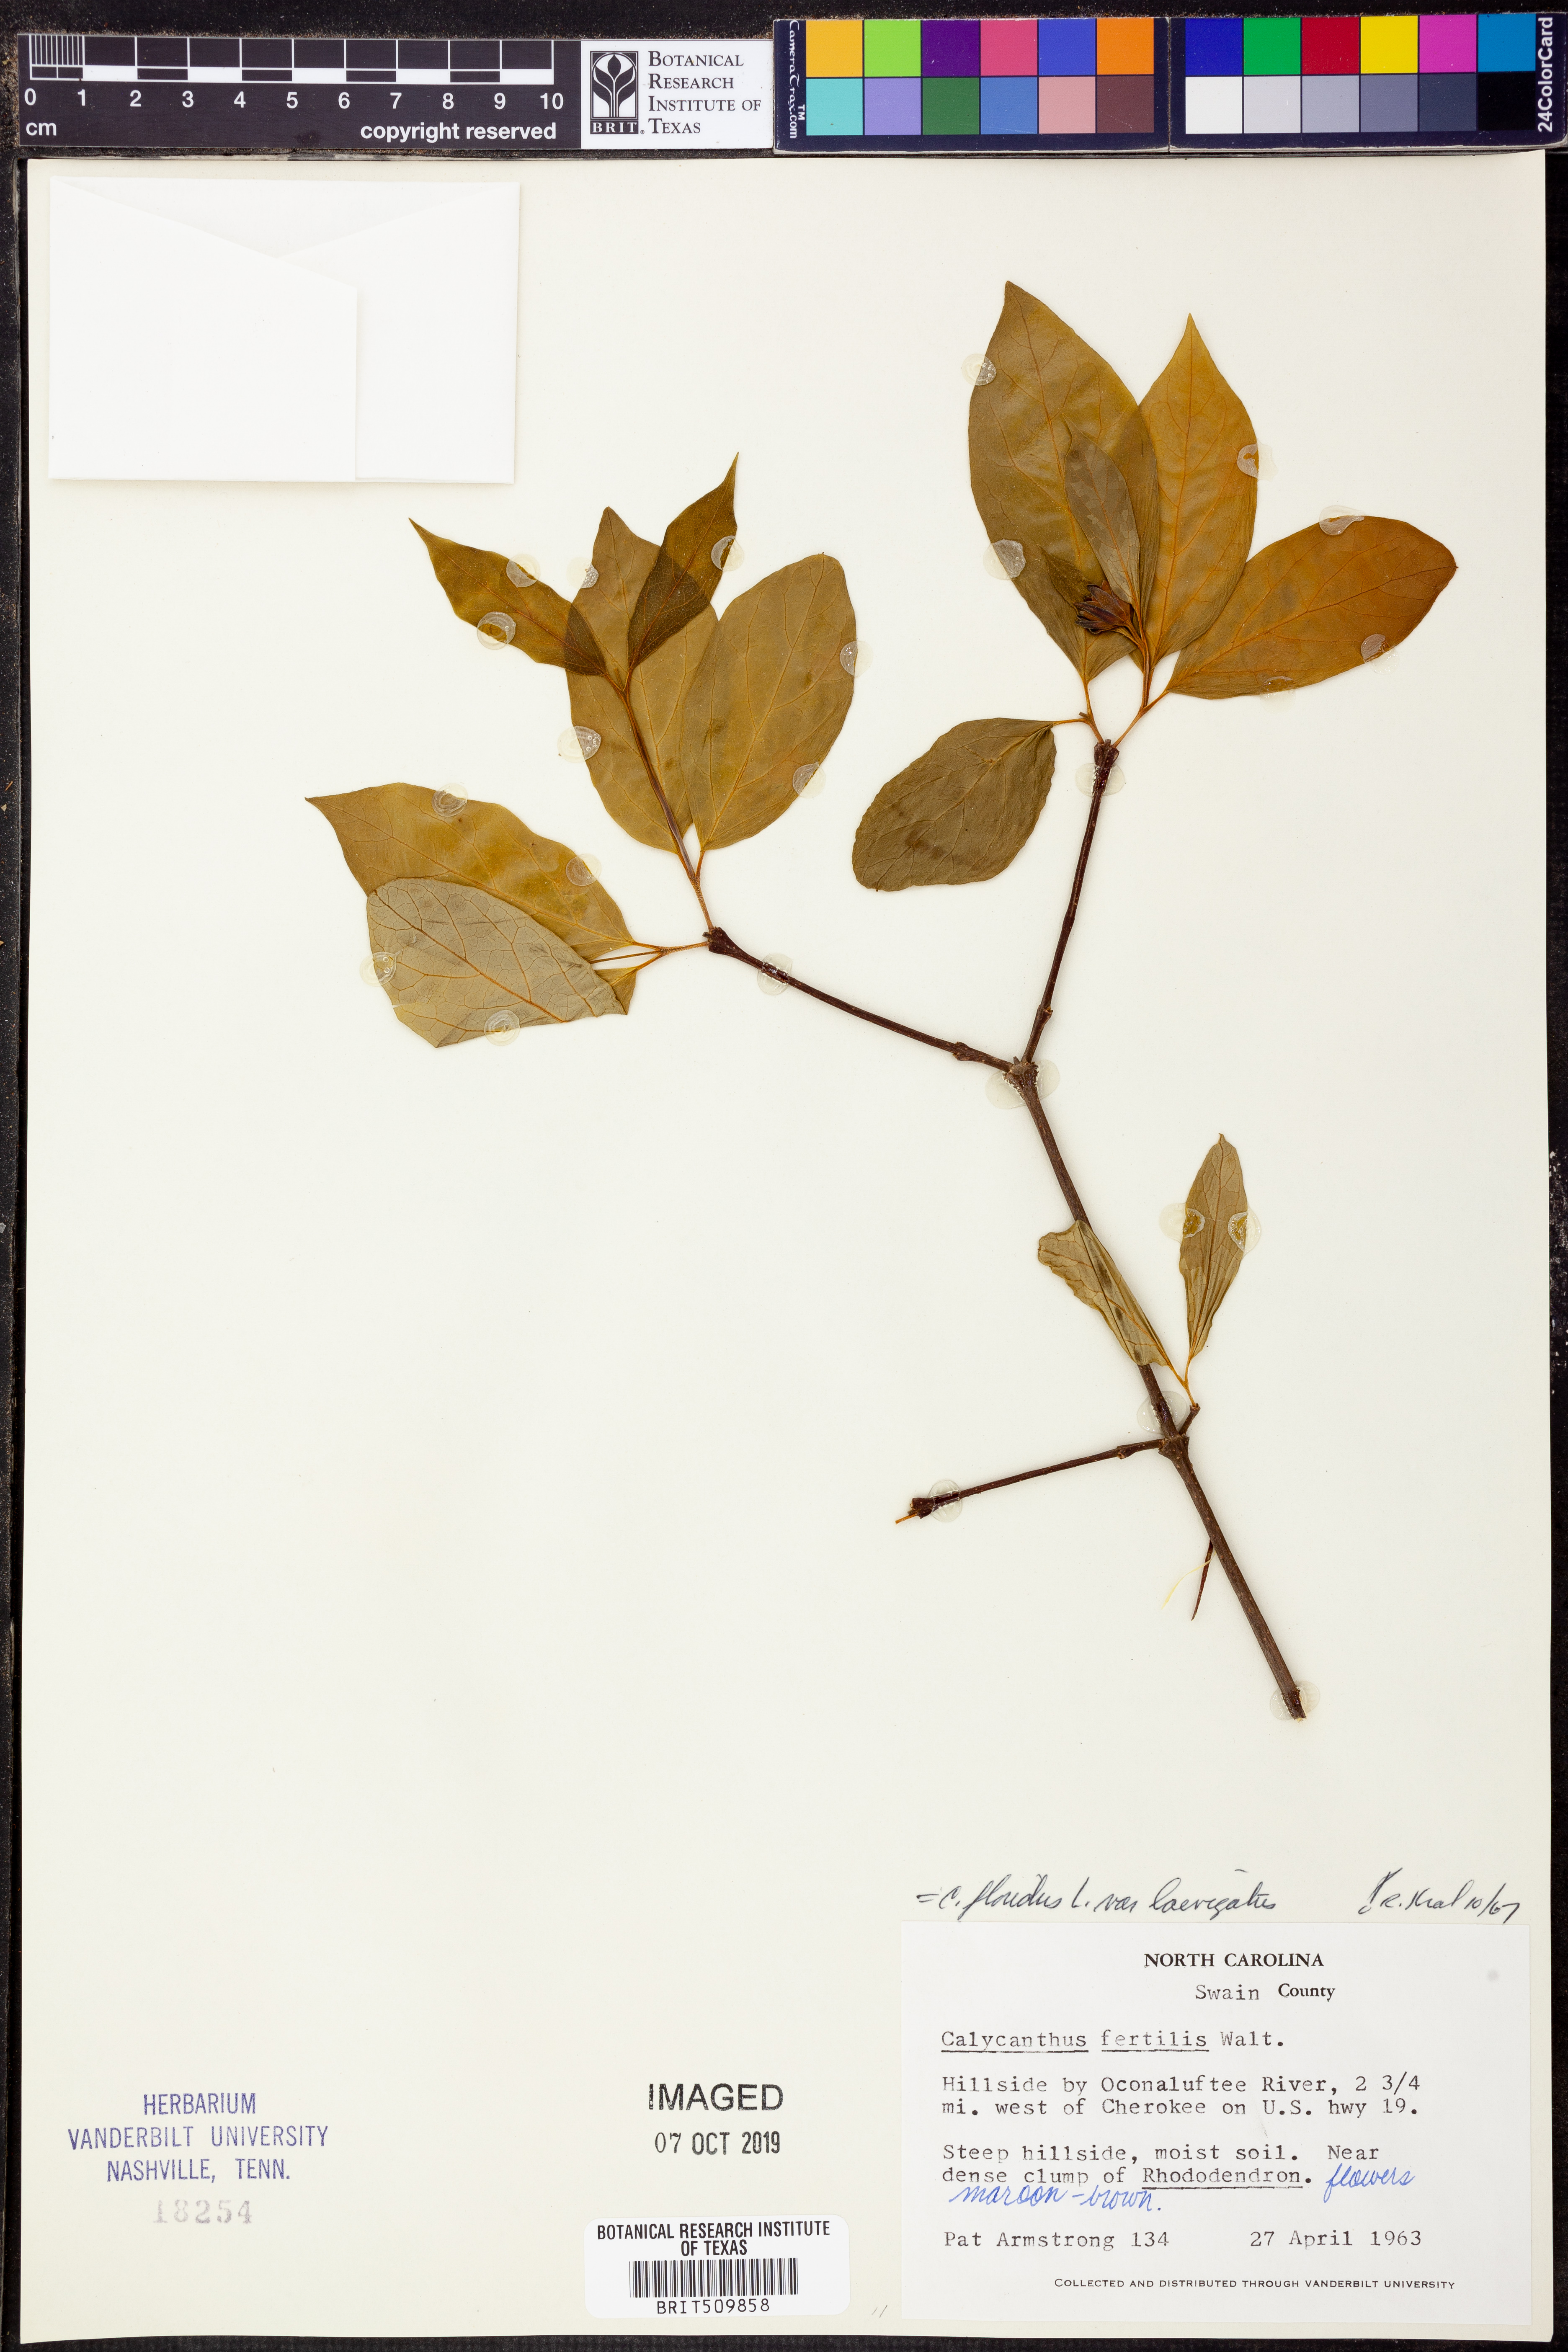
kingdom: Plantae
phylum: Tracheophyta
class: Magnoliopsida
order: Laurales
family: Calycanthaceae
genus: Calycanthus
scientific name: Calycanthus floridus
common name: Carolina-allspice
